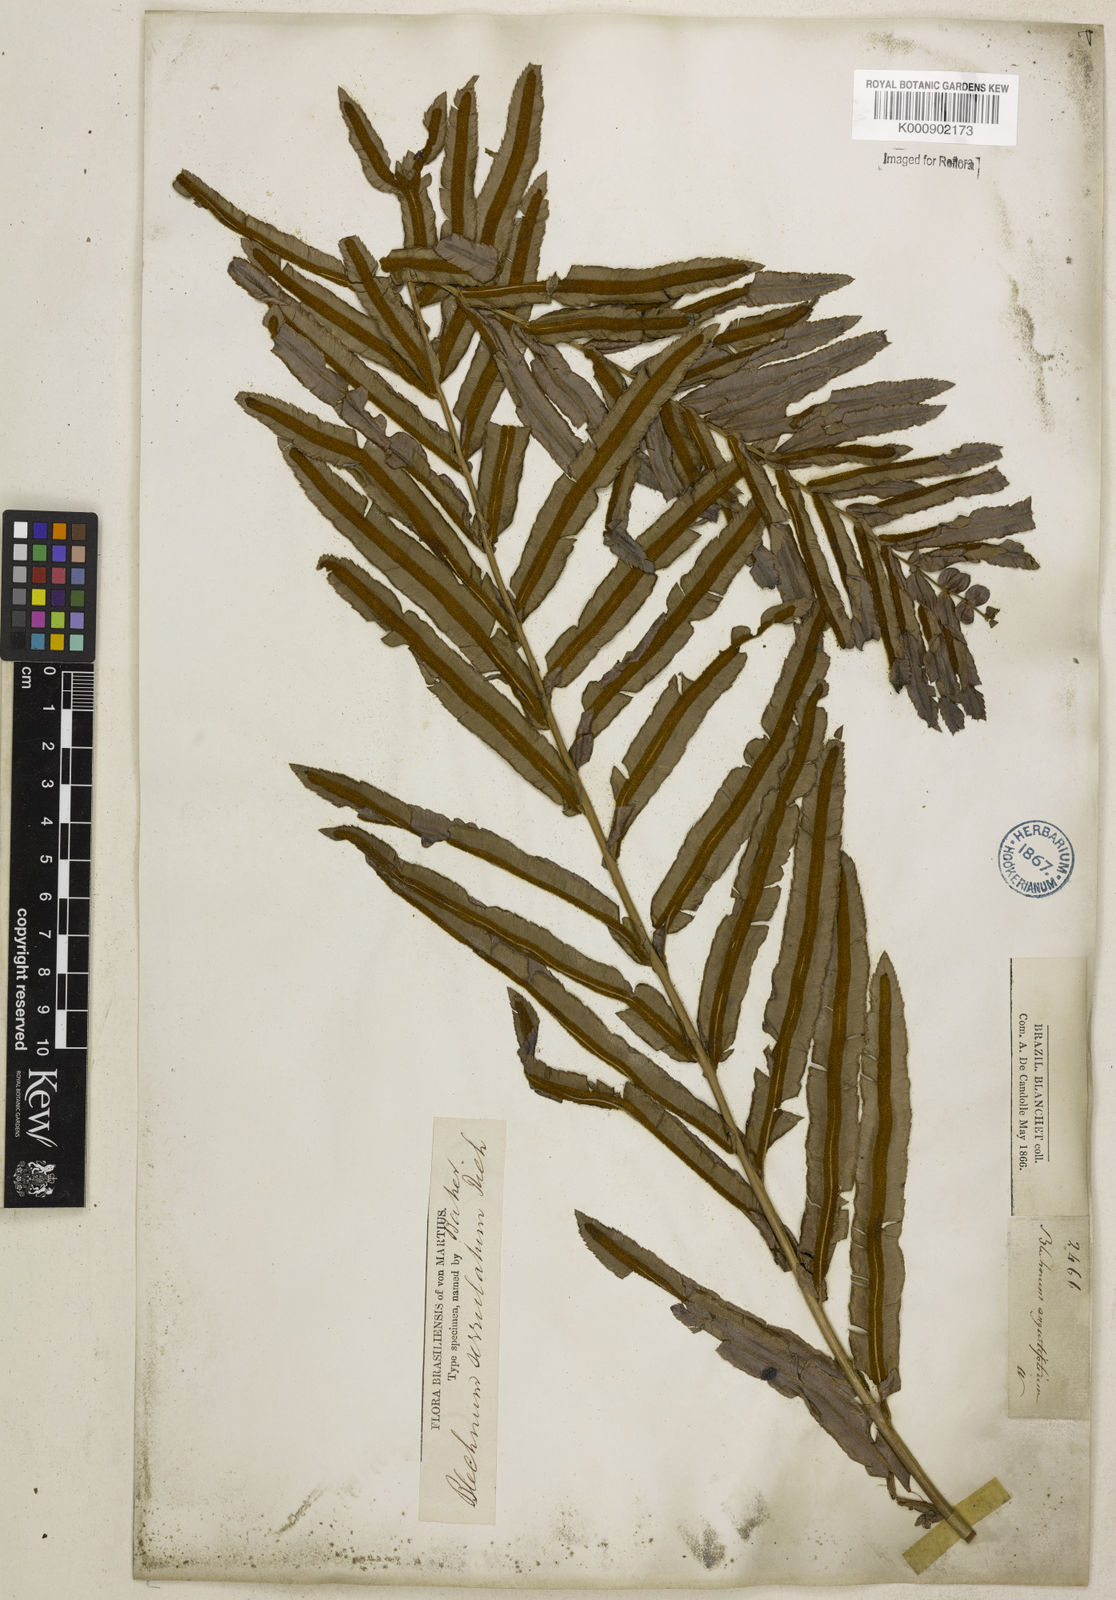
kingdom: Plantae
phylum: Tracheophyta
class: Polypodiopsida
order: Polypodiales
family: Blechnaceae
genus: Telmatoblechnum
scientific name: Telmatoblechnum serrulatum
